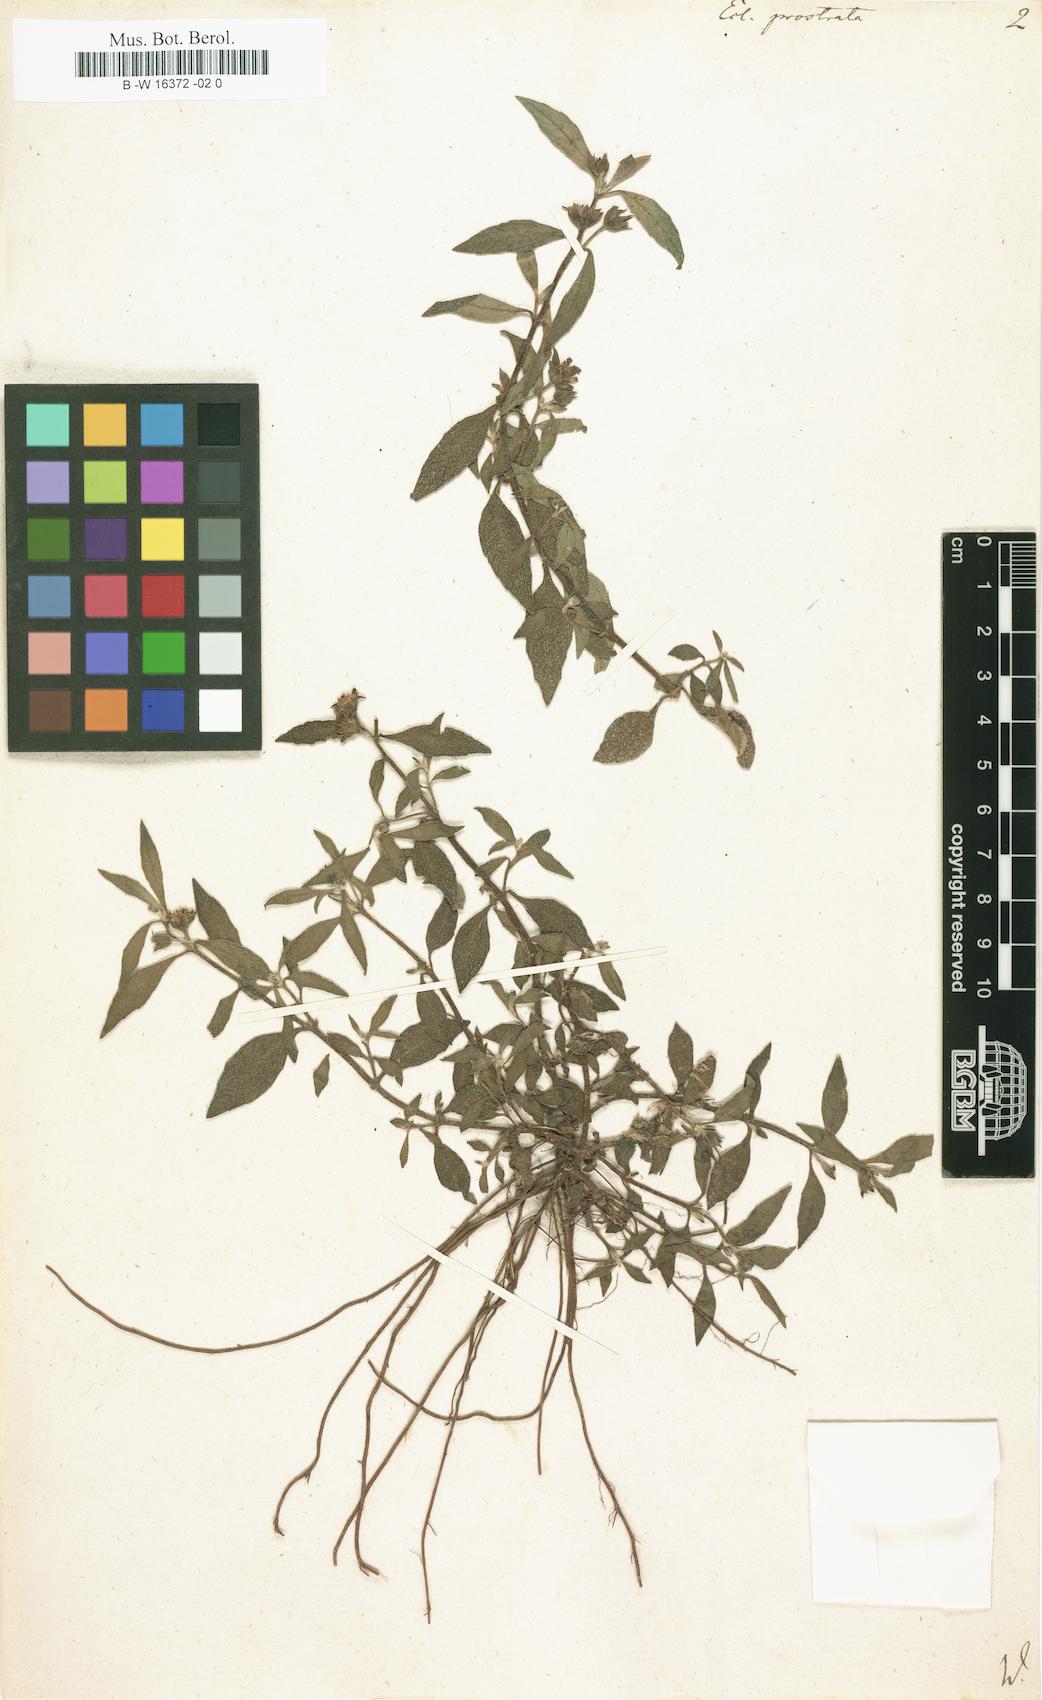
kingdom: Plantae
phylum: Tracheophyta
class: Magnoliopsida
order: Asterales
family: Asteraceae
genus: Eclipta
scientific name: Eclipta prostrata
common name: False daisy
